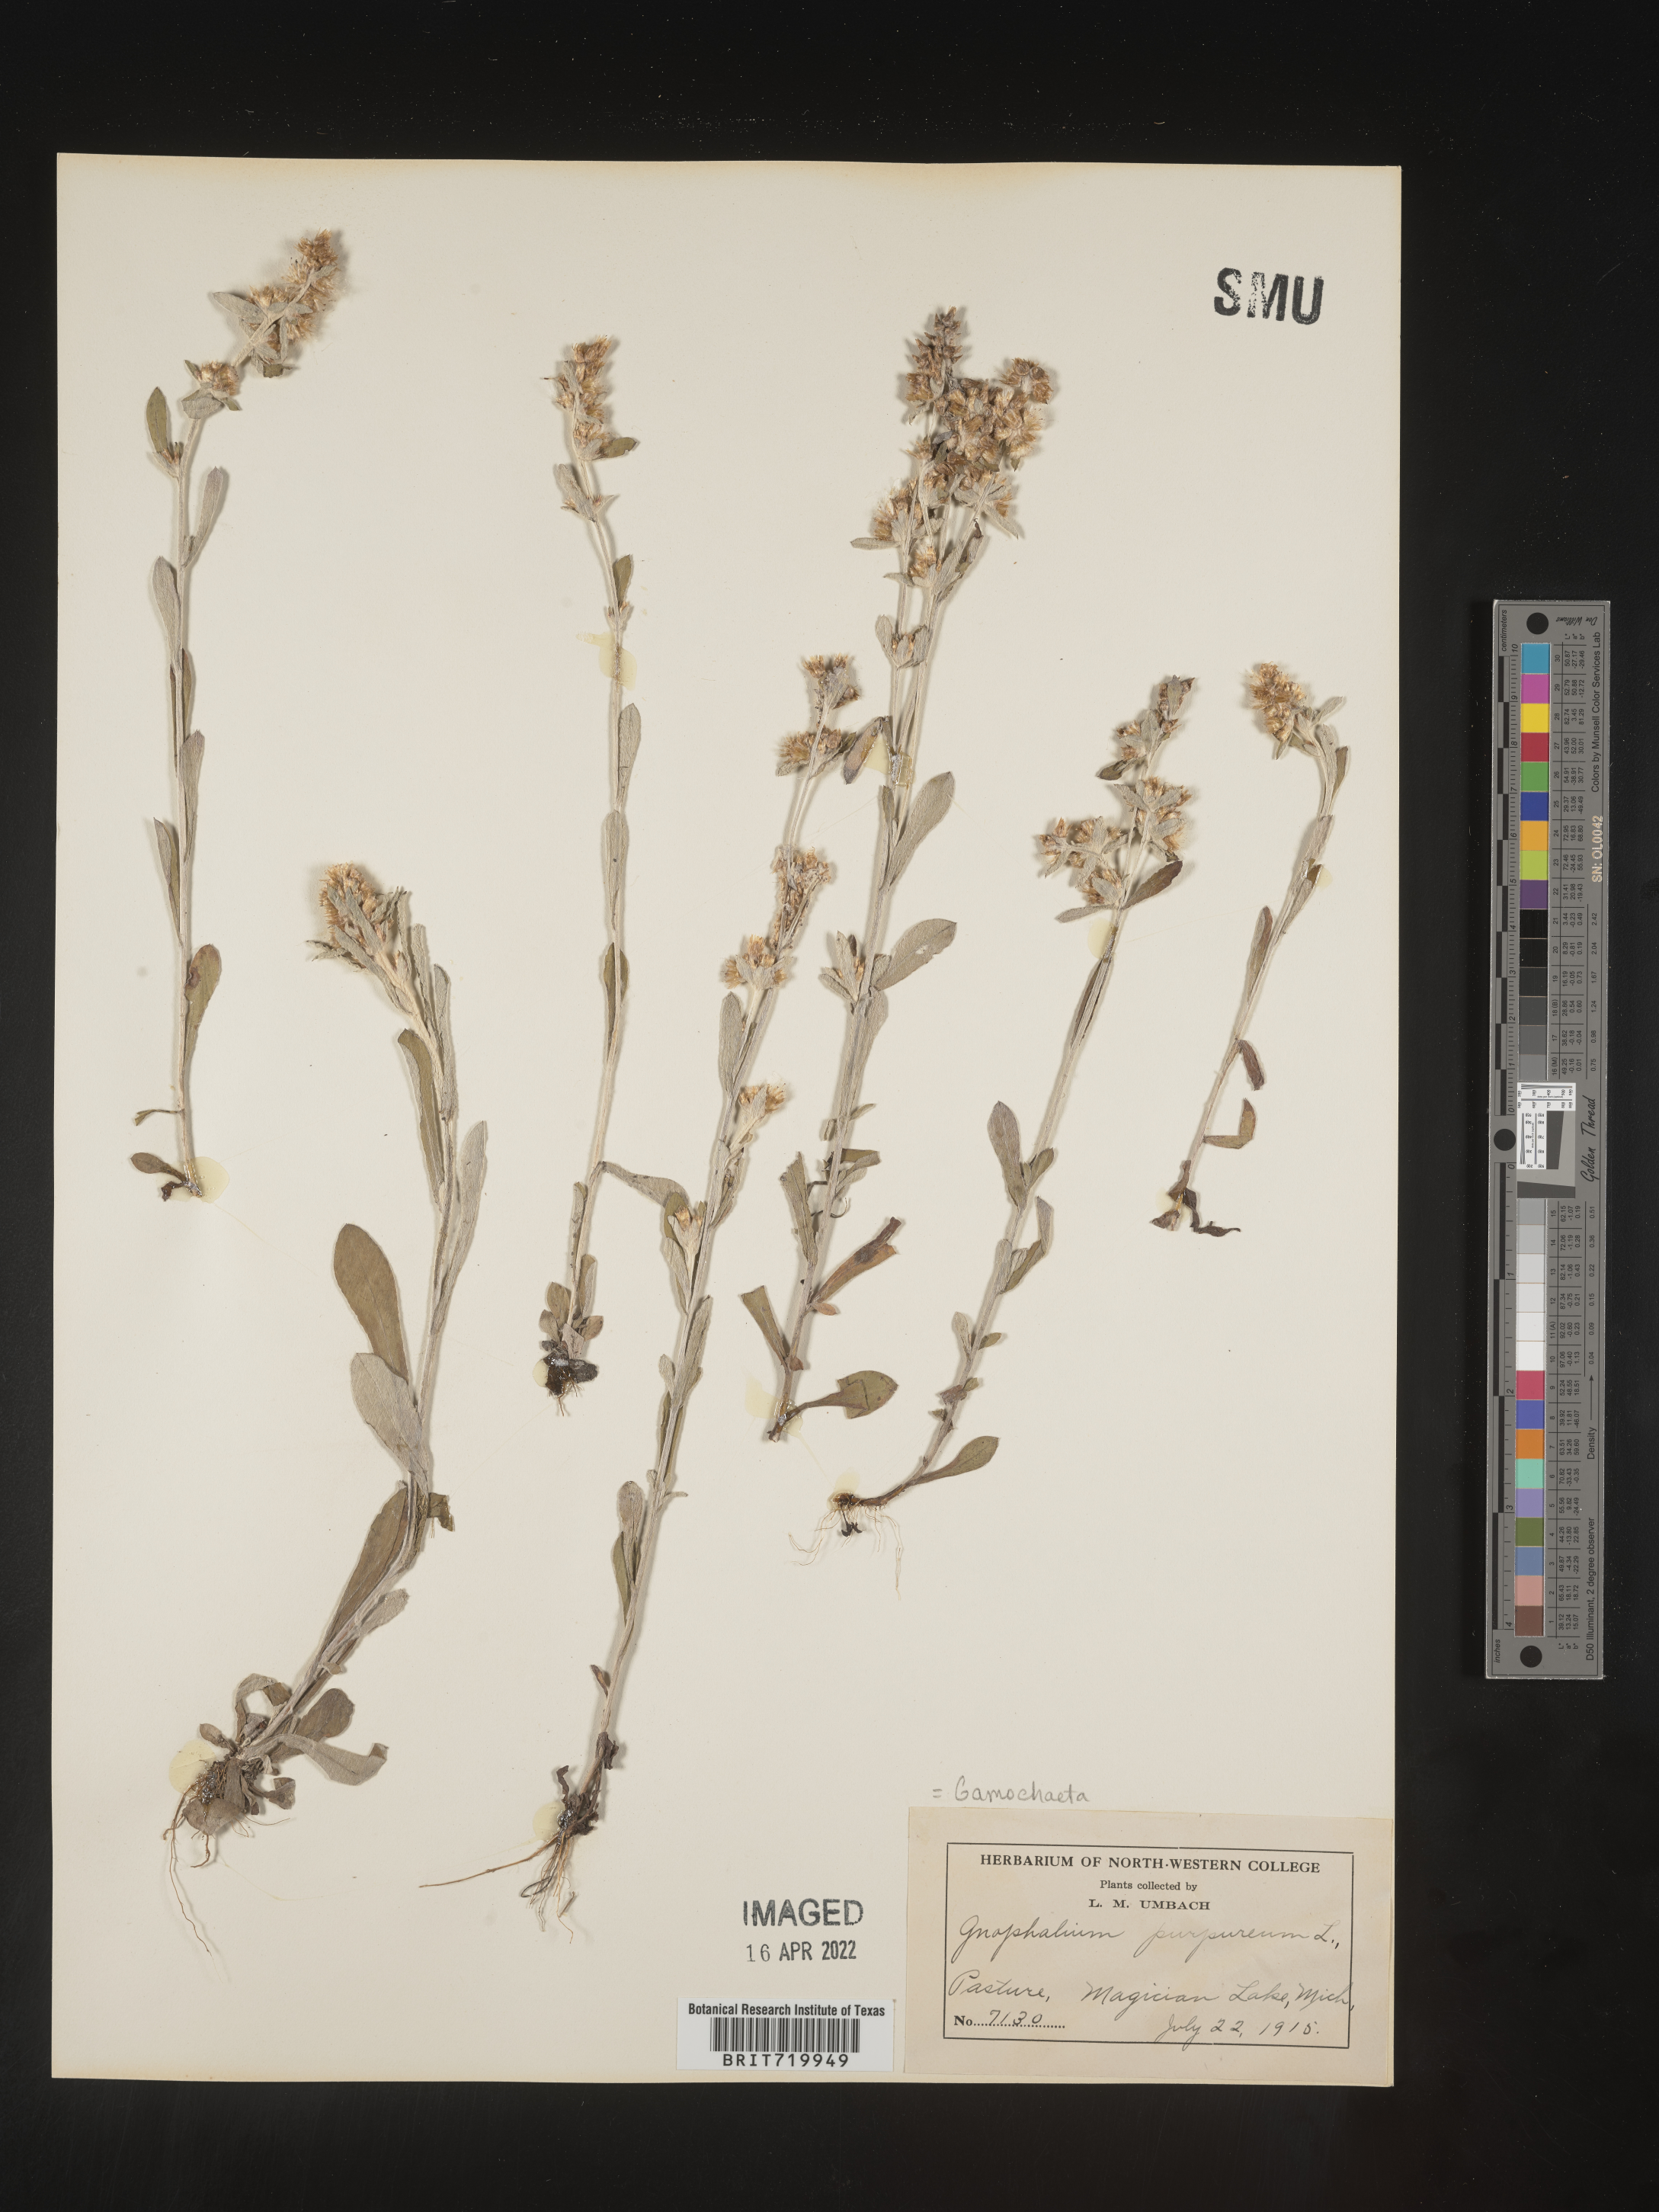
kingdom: Plantae
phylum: Tracheophyta
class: Magnoliopsida
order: Asterales
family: Asteraceae
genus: Gamochaeta
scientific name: Gamochaeta purpurea
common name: Purple cudweed
